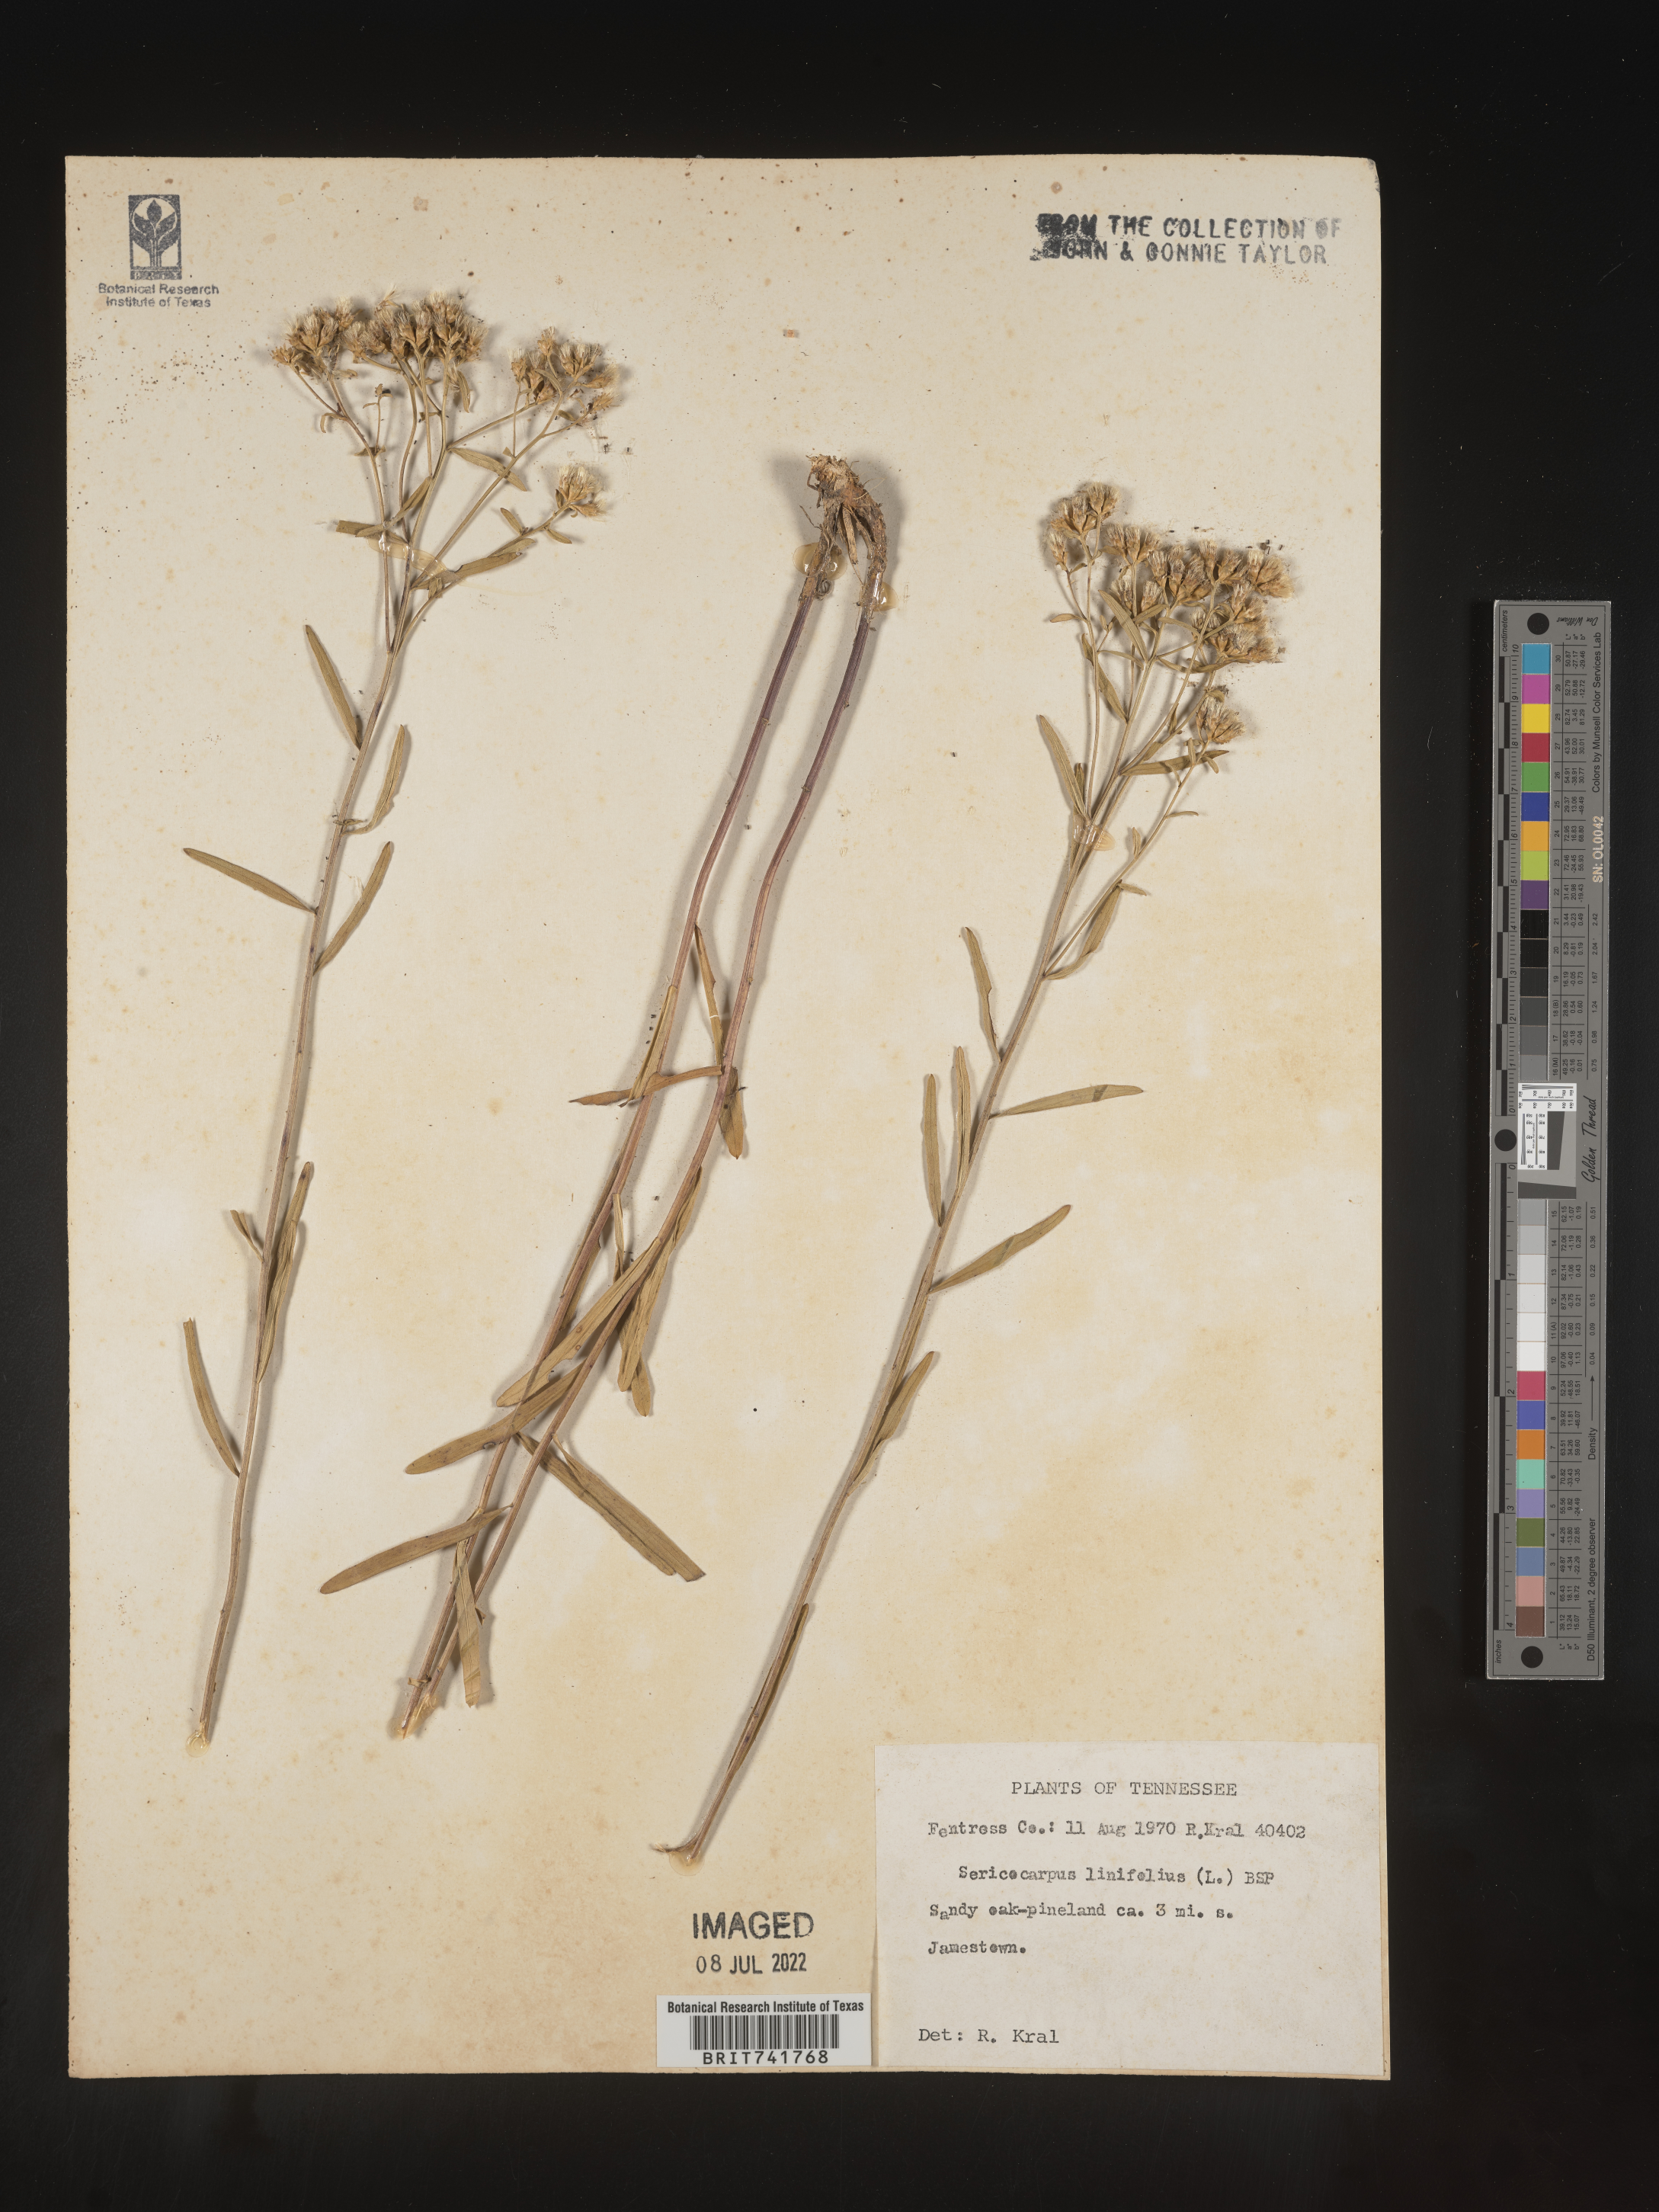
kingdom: Plantae
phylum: Tracheophyta
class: Magnoliopsida
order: Asterales
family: Asteraceae
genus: Sericocarpus
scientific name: Sericocarpus linifolius
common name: Narrow-leaf aster
